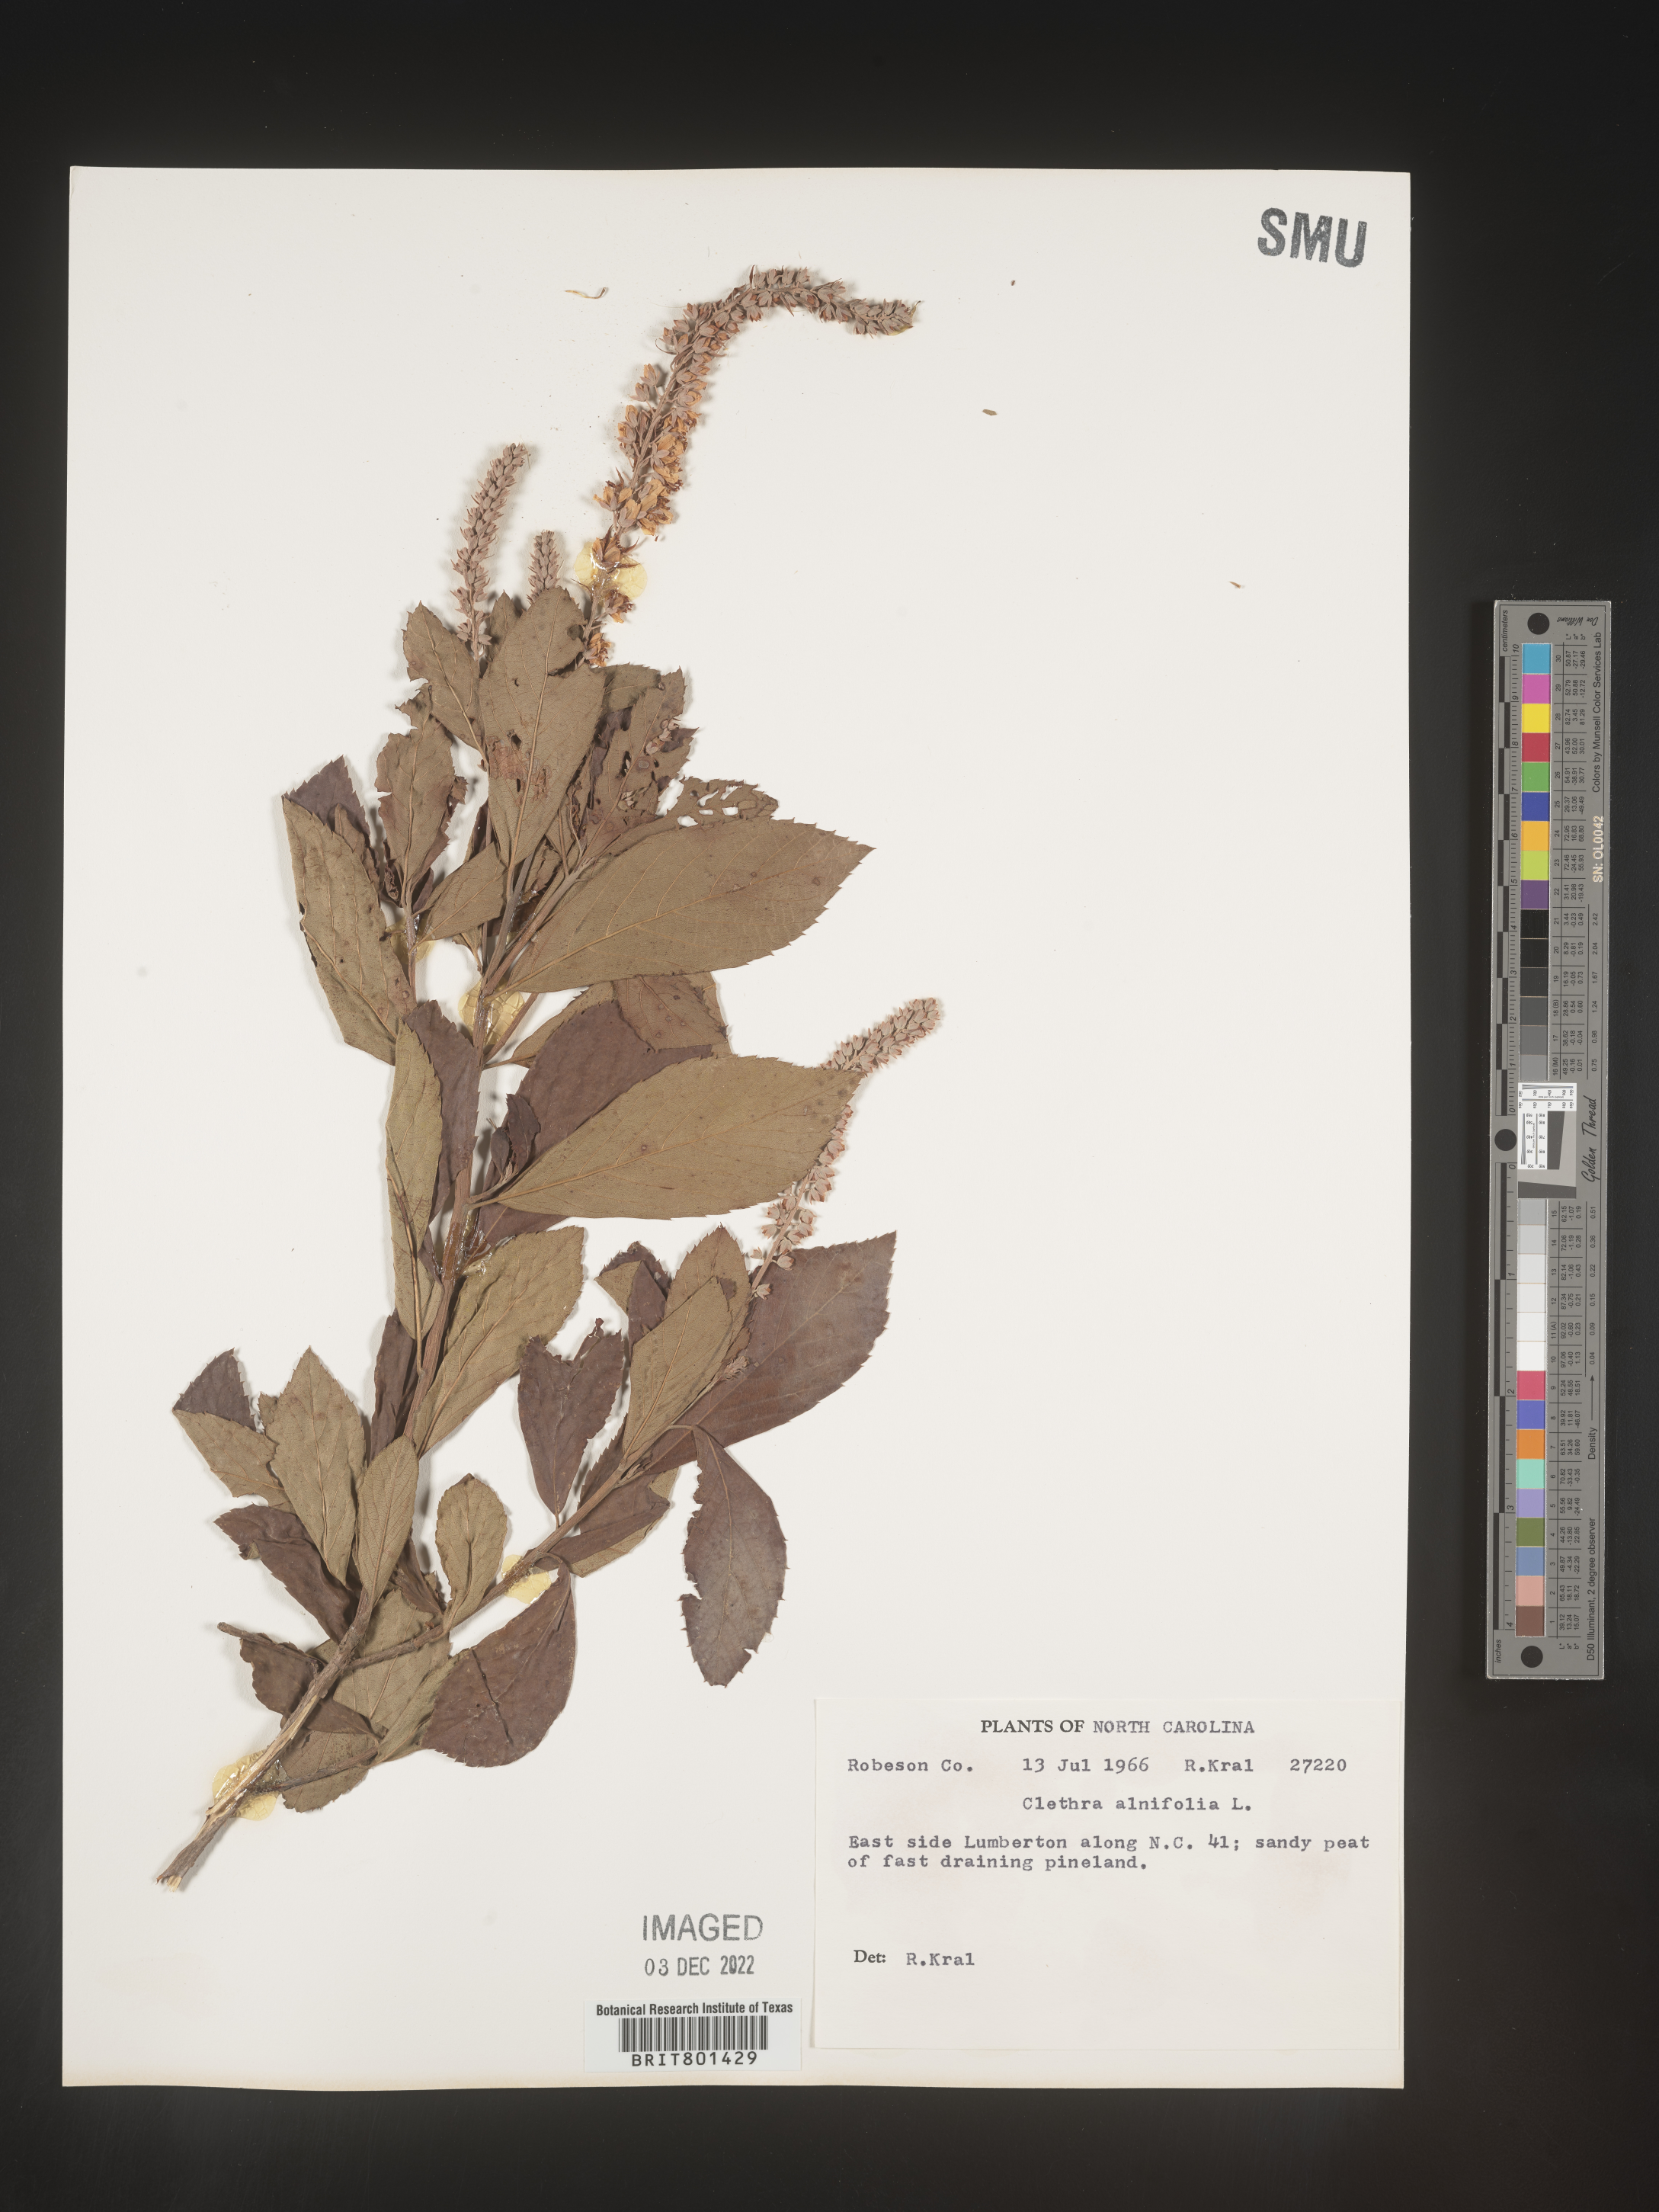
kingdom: Plantae
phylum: Tracheophyta
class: Magnoliopsida
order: Ericales
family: Clethraceae
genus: Clethra
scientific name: Clethra alnifolia
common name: Sweet pepperbush
